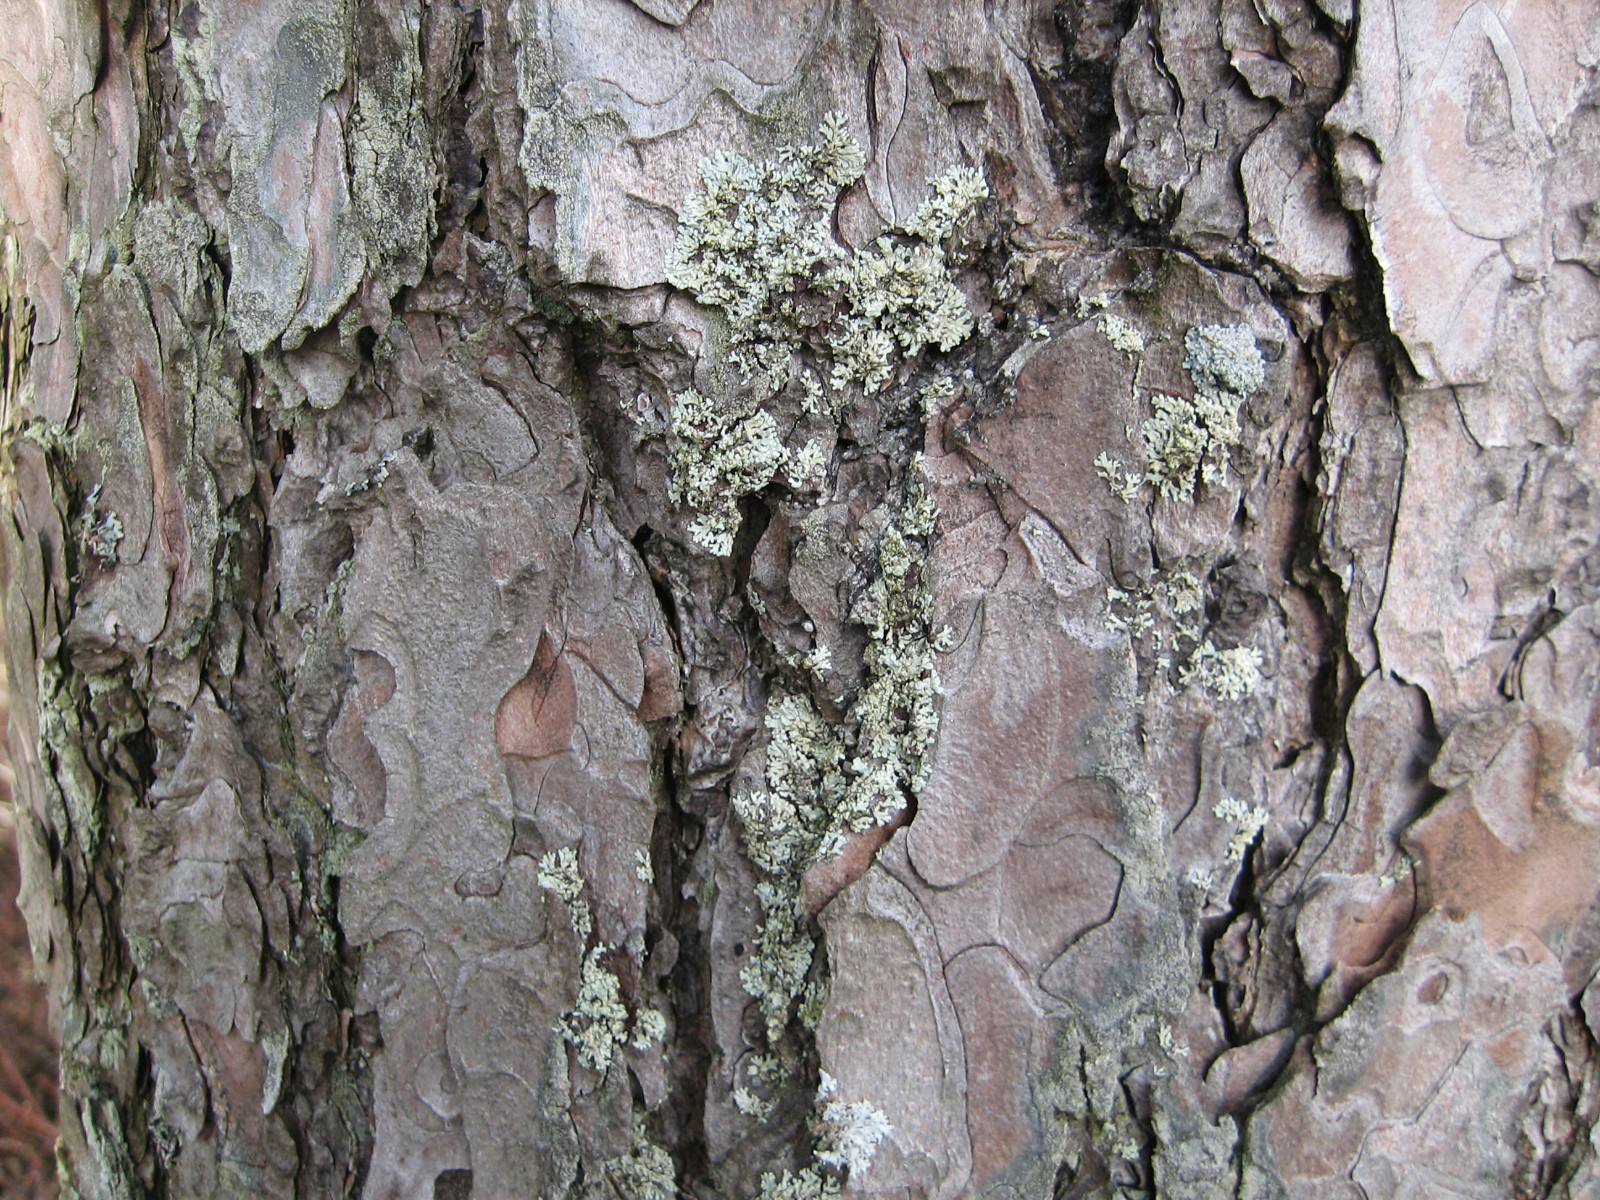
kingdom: Fungi
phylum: Ascomycota
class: Lecanoromycetes
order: Lecanorales
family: Parmeliaceae
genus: Parmeliopsis
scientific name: Parmeliopsis ambigua
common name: gul stolpelav
